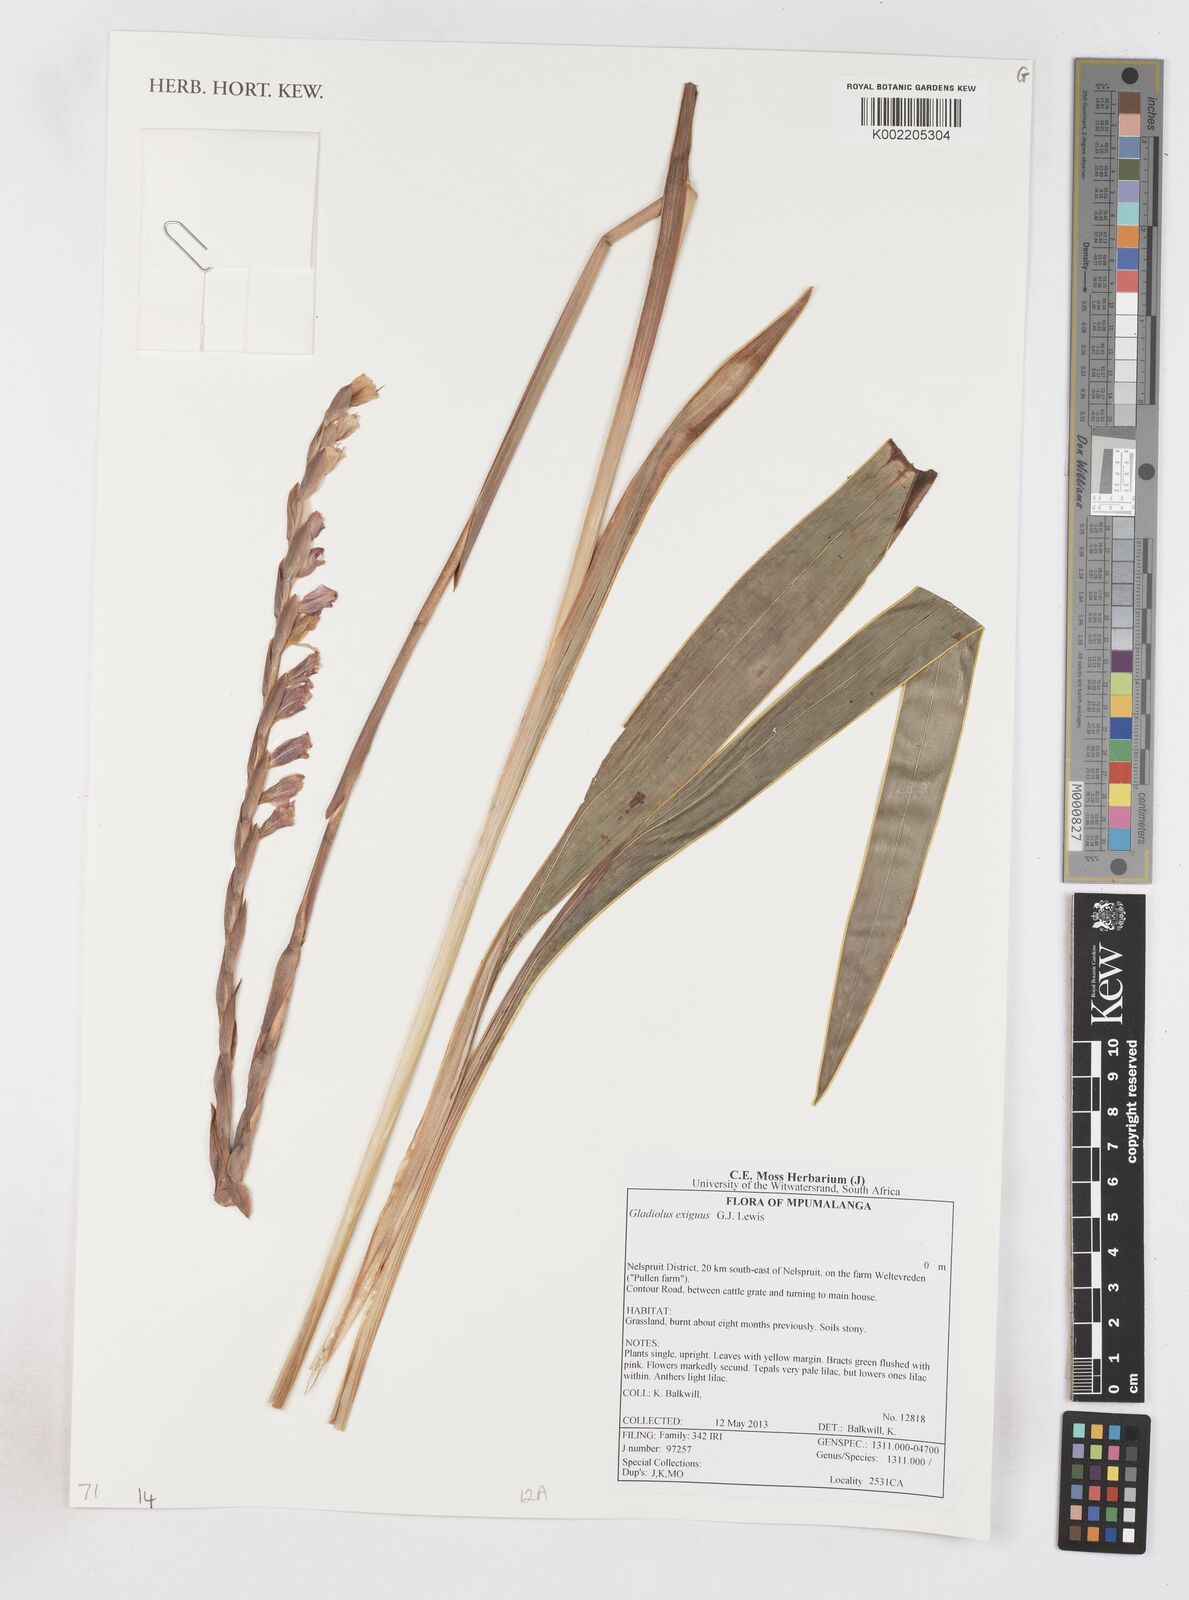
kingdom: Plantae
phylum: Tracheophyta
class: Liliopsida
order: Asparagales
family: Iridaceae
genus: Gladiolus
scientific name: Gladiolus exiguus
